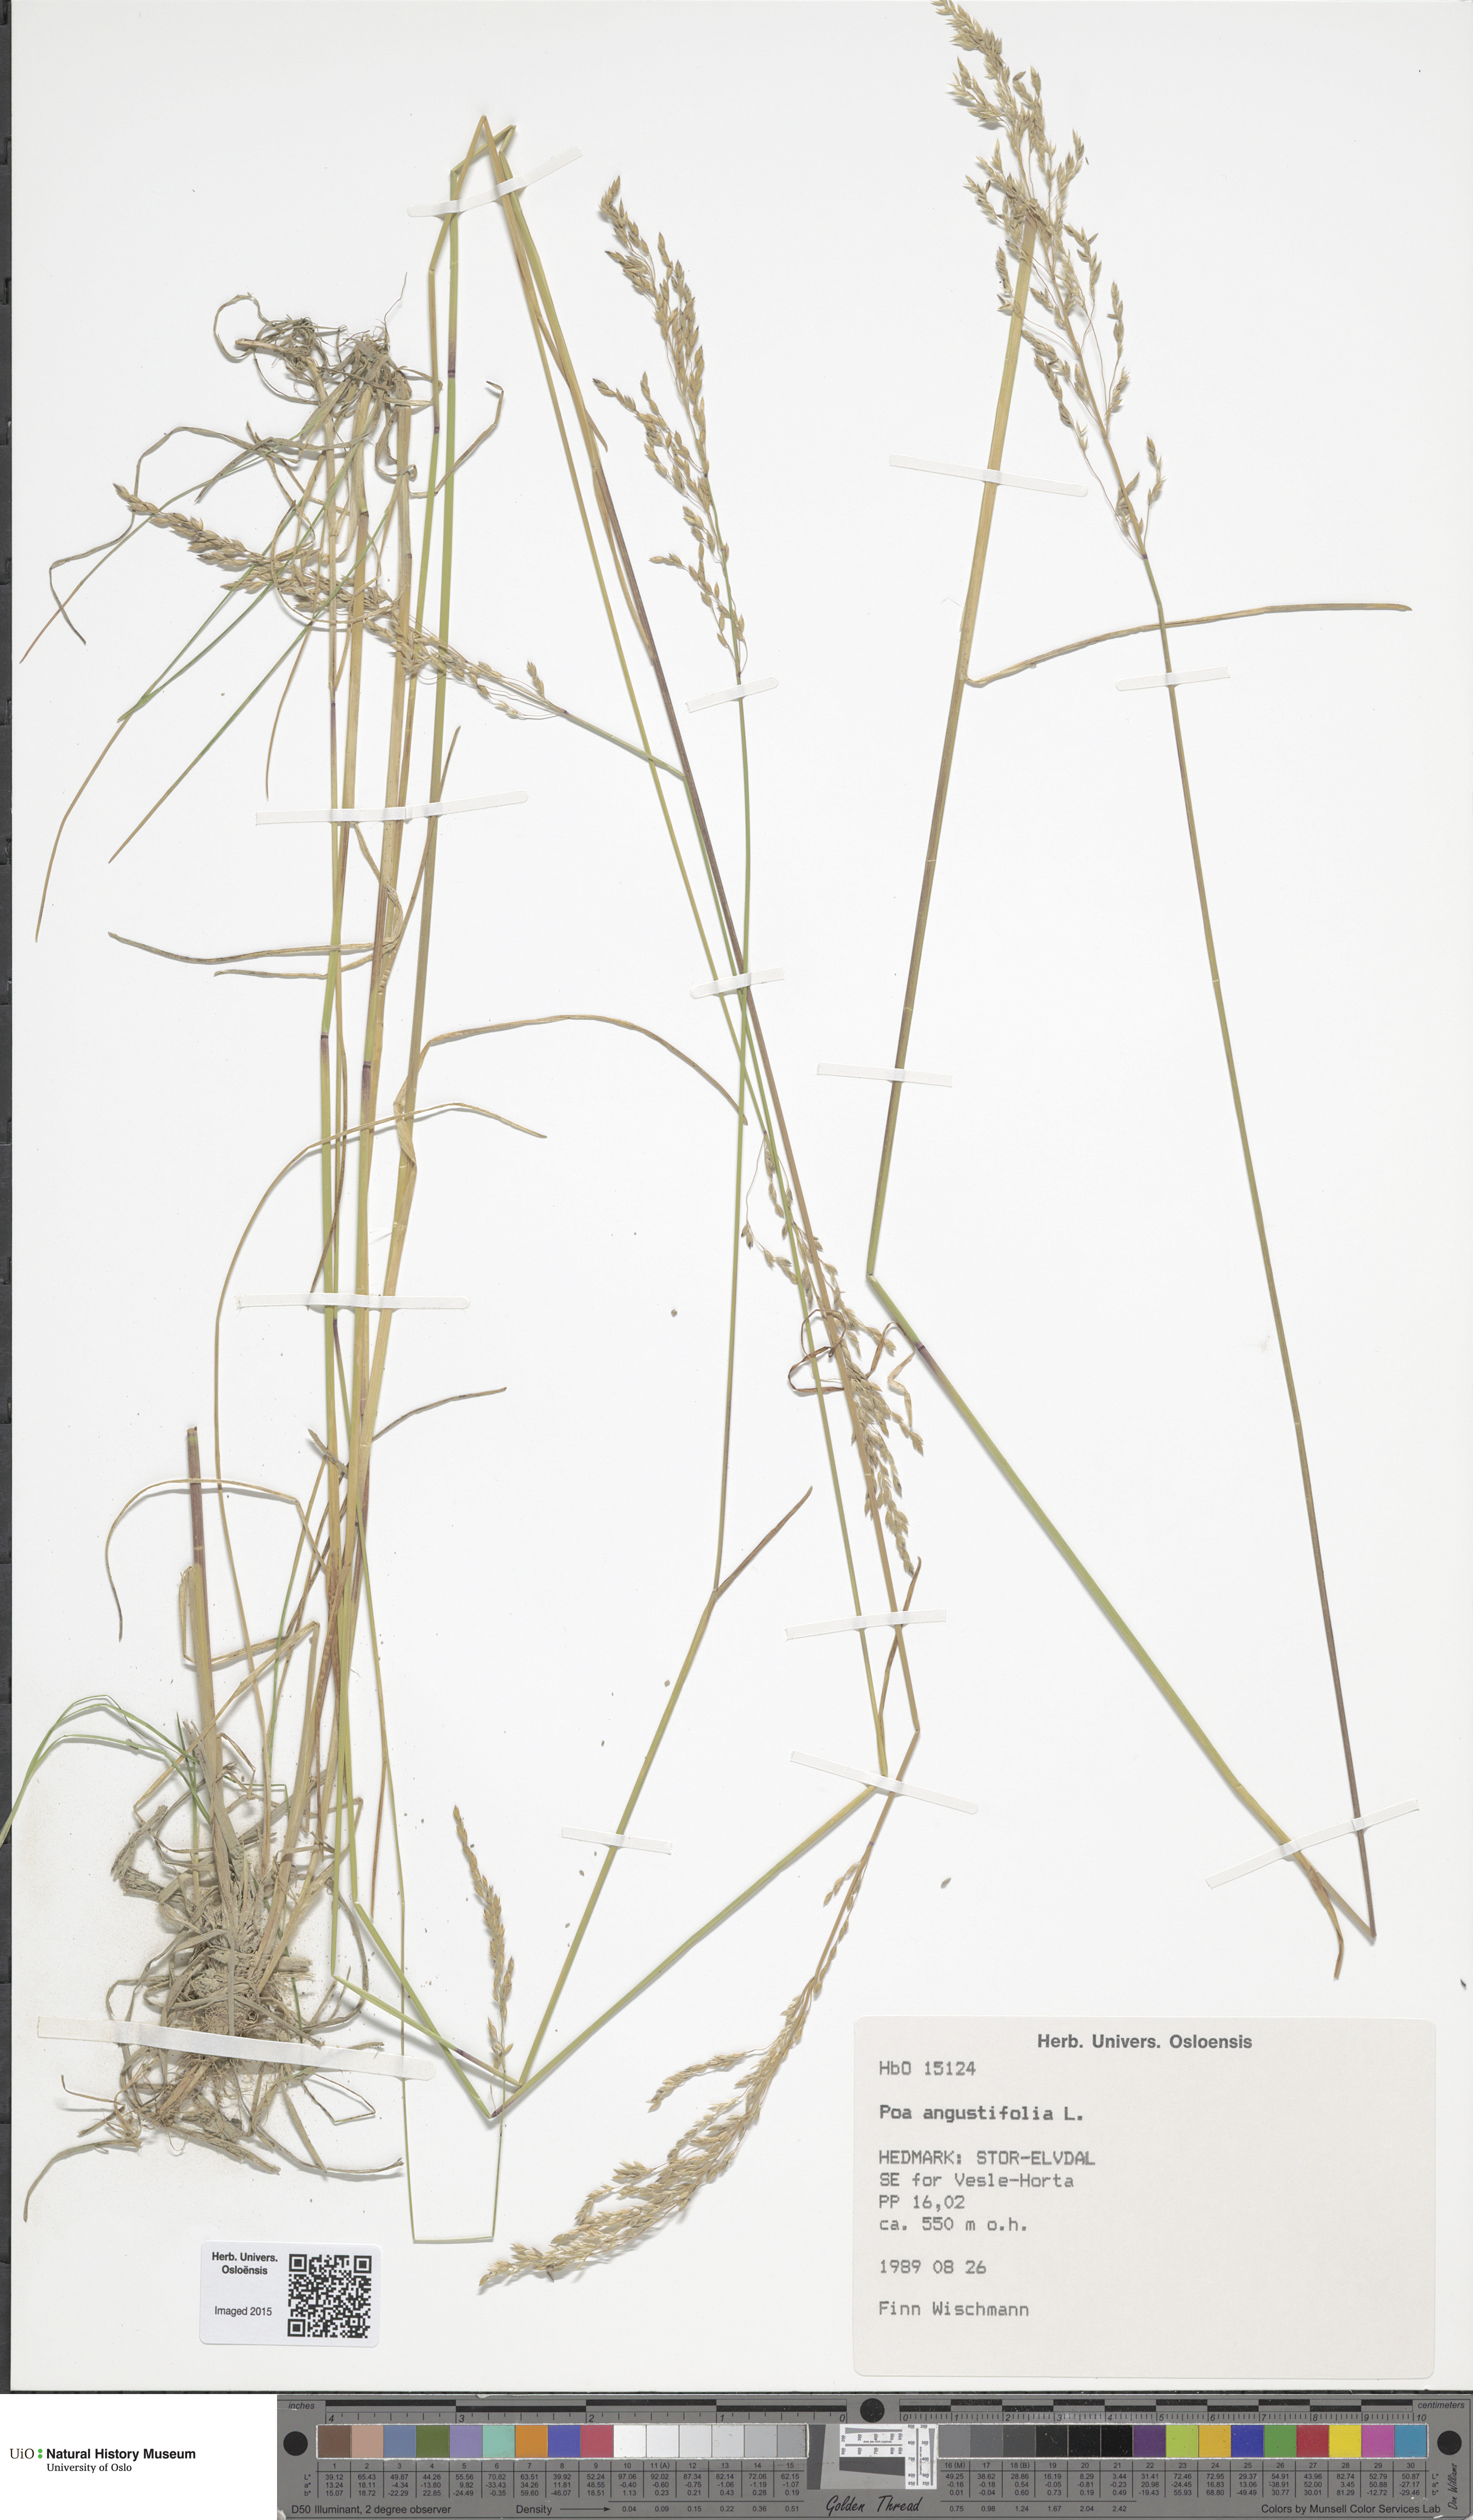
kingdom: Plantae
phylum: Tracheophyta
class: Liliopsida
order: Poales
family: Poaceae
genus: Poa
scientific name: Poa angustifolia
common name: Narrow-leaved meadow-grass
